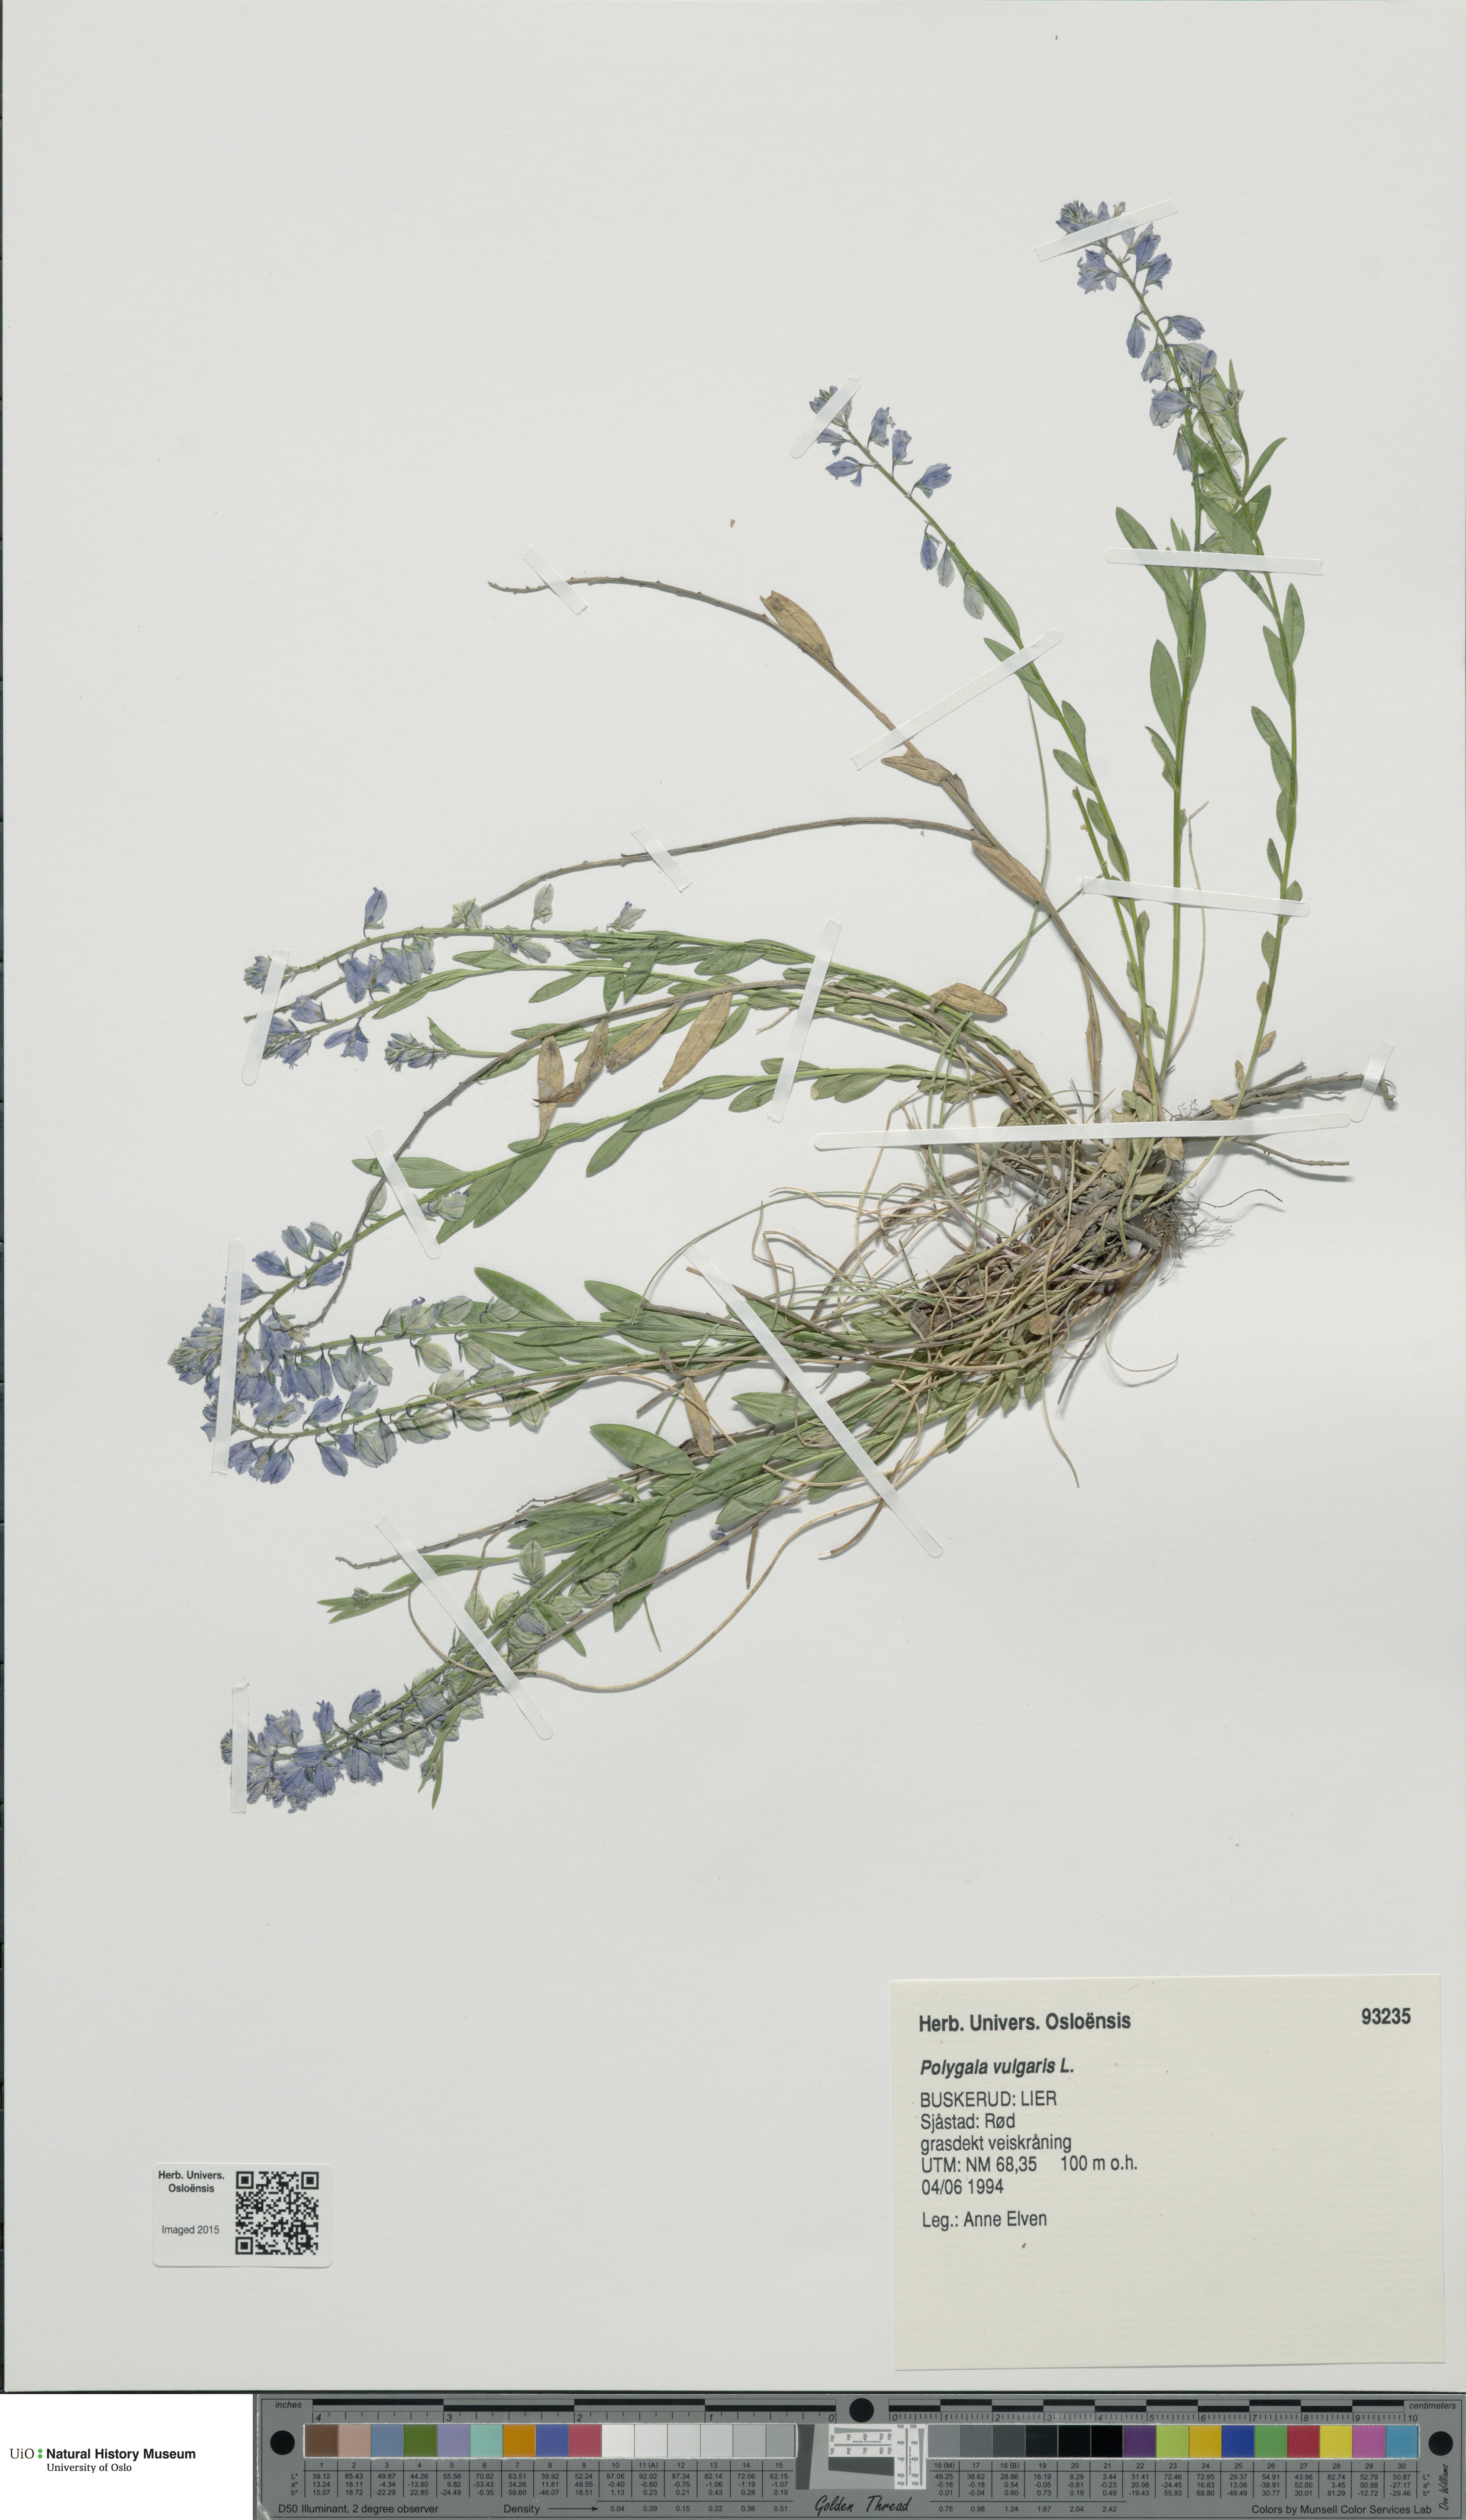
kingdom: Plantae
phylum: Tracheophyta
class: Magnoliopsida
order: Fabales
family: Polygalaceae
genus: Polygala
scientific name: Polygala vulgaris
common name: Common milkwort
